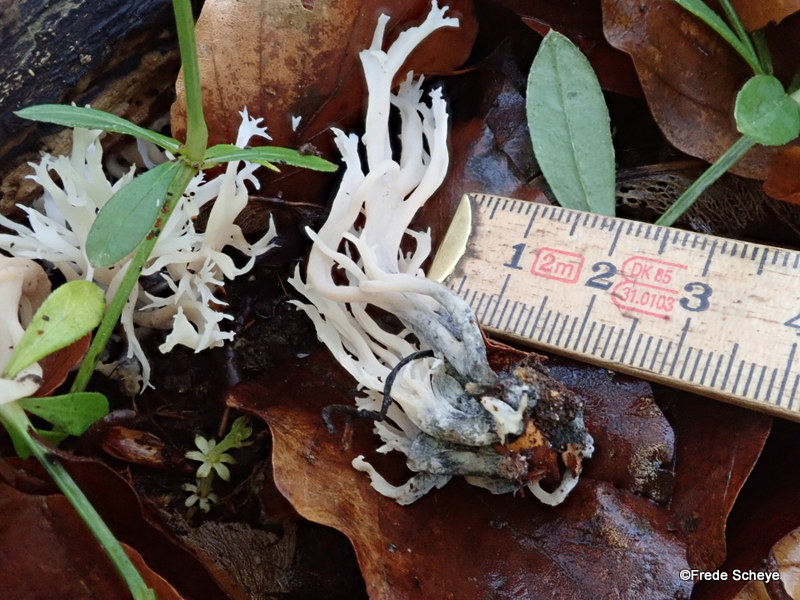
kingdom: Fungi
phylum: Ascomycota
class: Sordariomycetes
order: Sordariales
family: Helminthosphaeriaceae
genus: Helminthosphaeria
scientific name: Helminthosphaeria clavariarum
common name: trold-svampesnyltekerne
